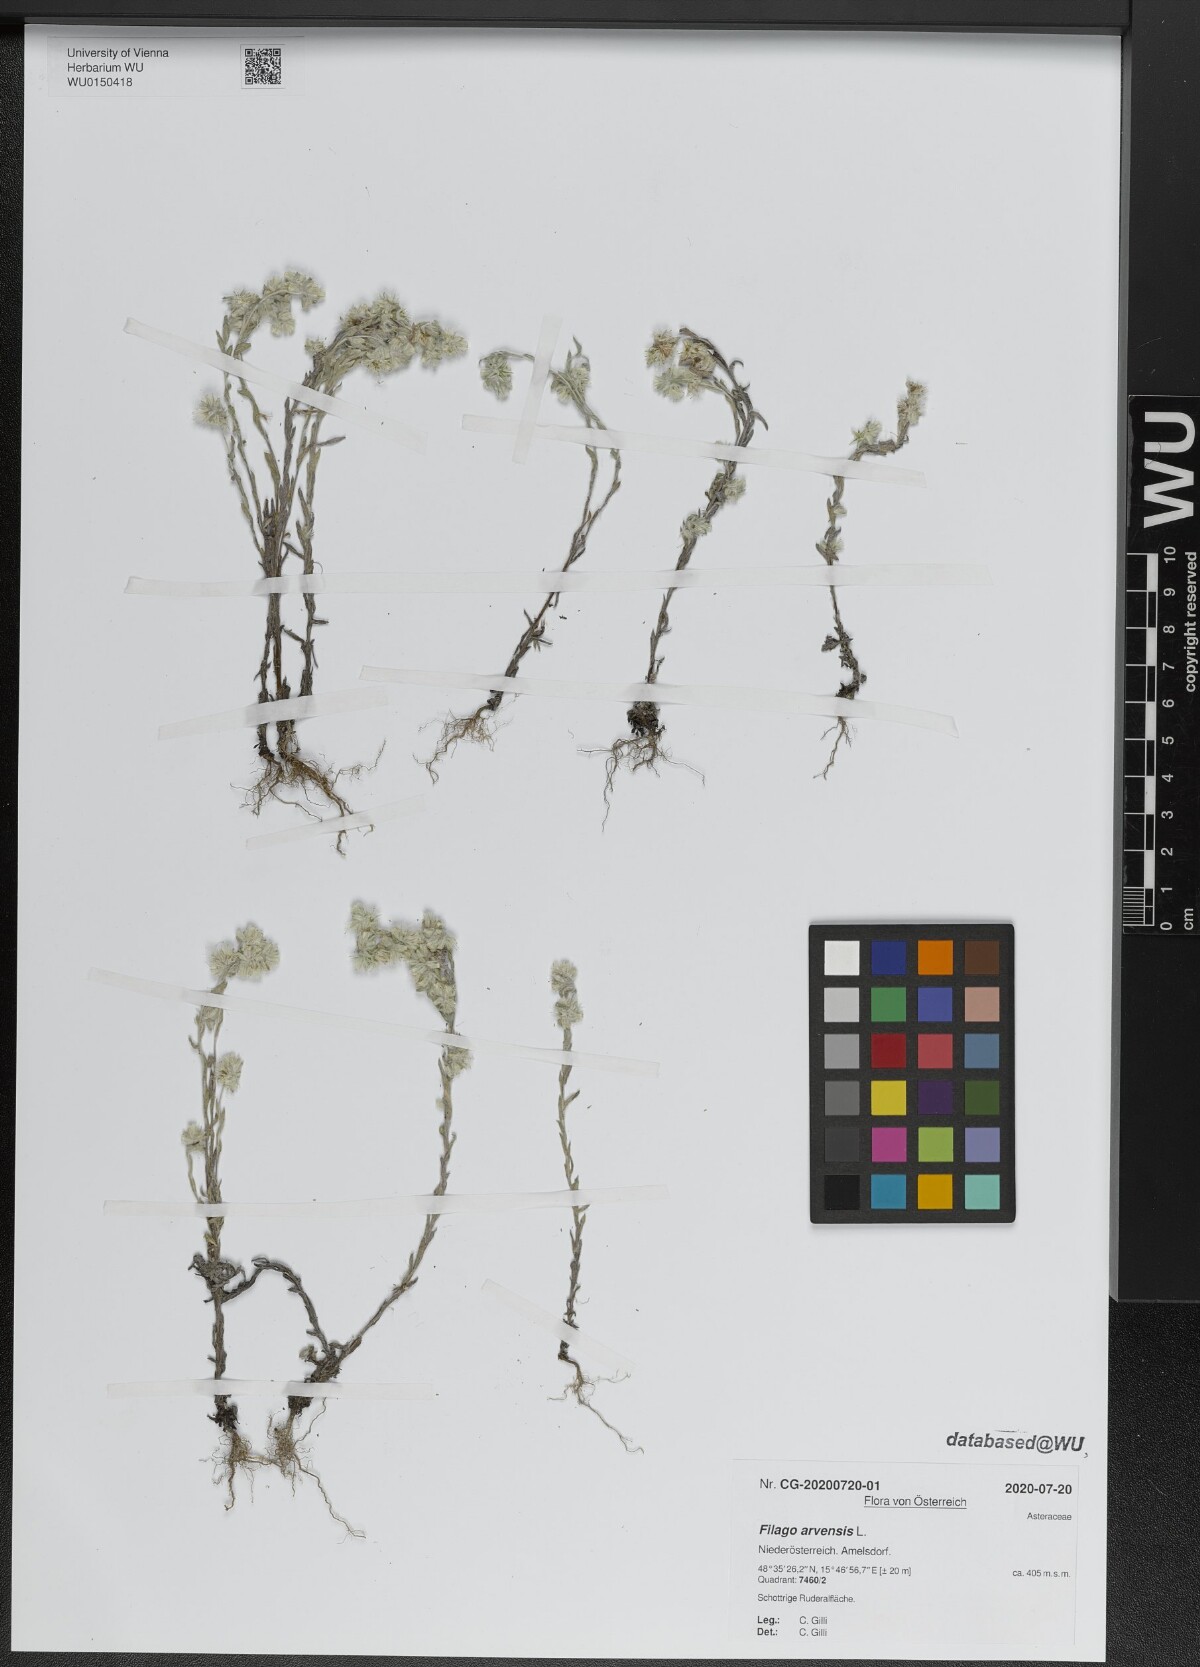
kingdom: Plantae
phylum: Tracheophyta
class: Magnoliopsida
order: Asterales
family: Asteraceae
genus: Filago
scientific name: Filago arvensis
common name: Field cudweed
